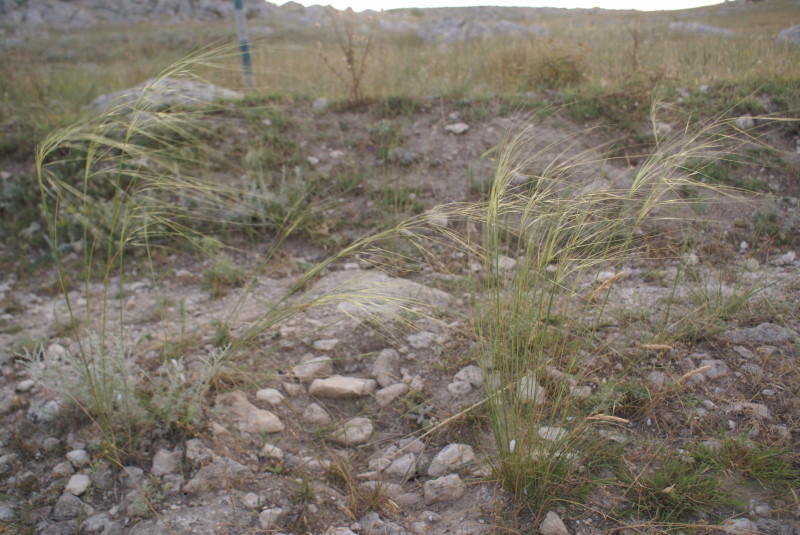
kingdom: Plantae
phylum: Tracheophyta
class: Liliopsida
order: Poales
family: Poaceae
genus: Stipa
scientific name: Stipa
